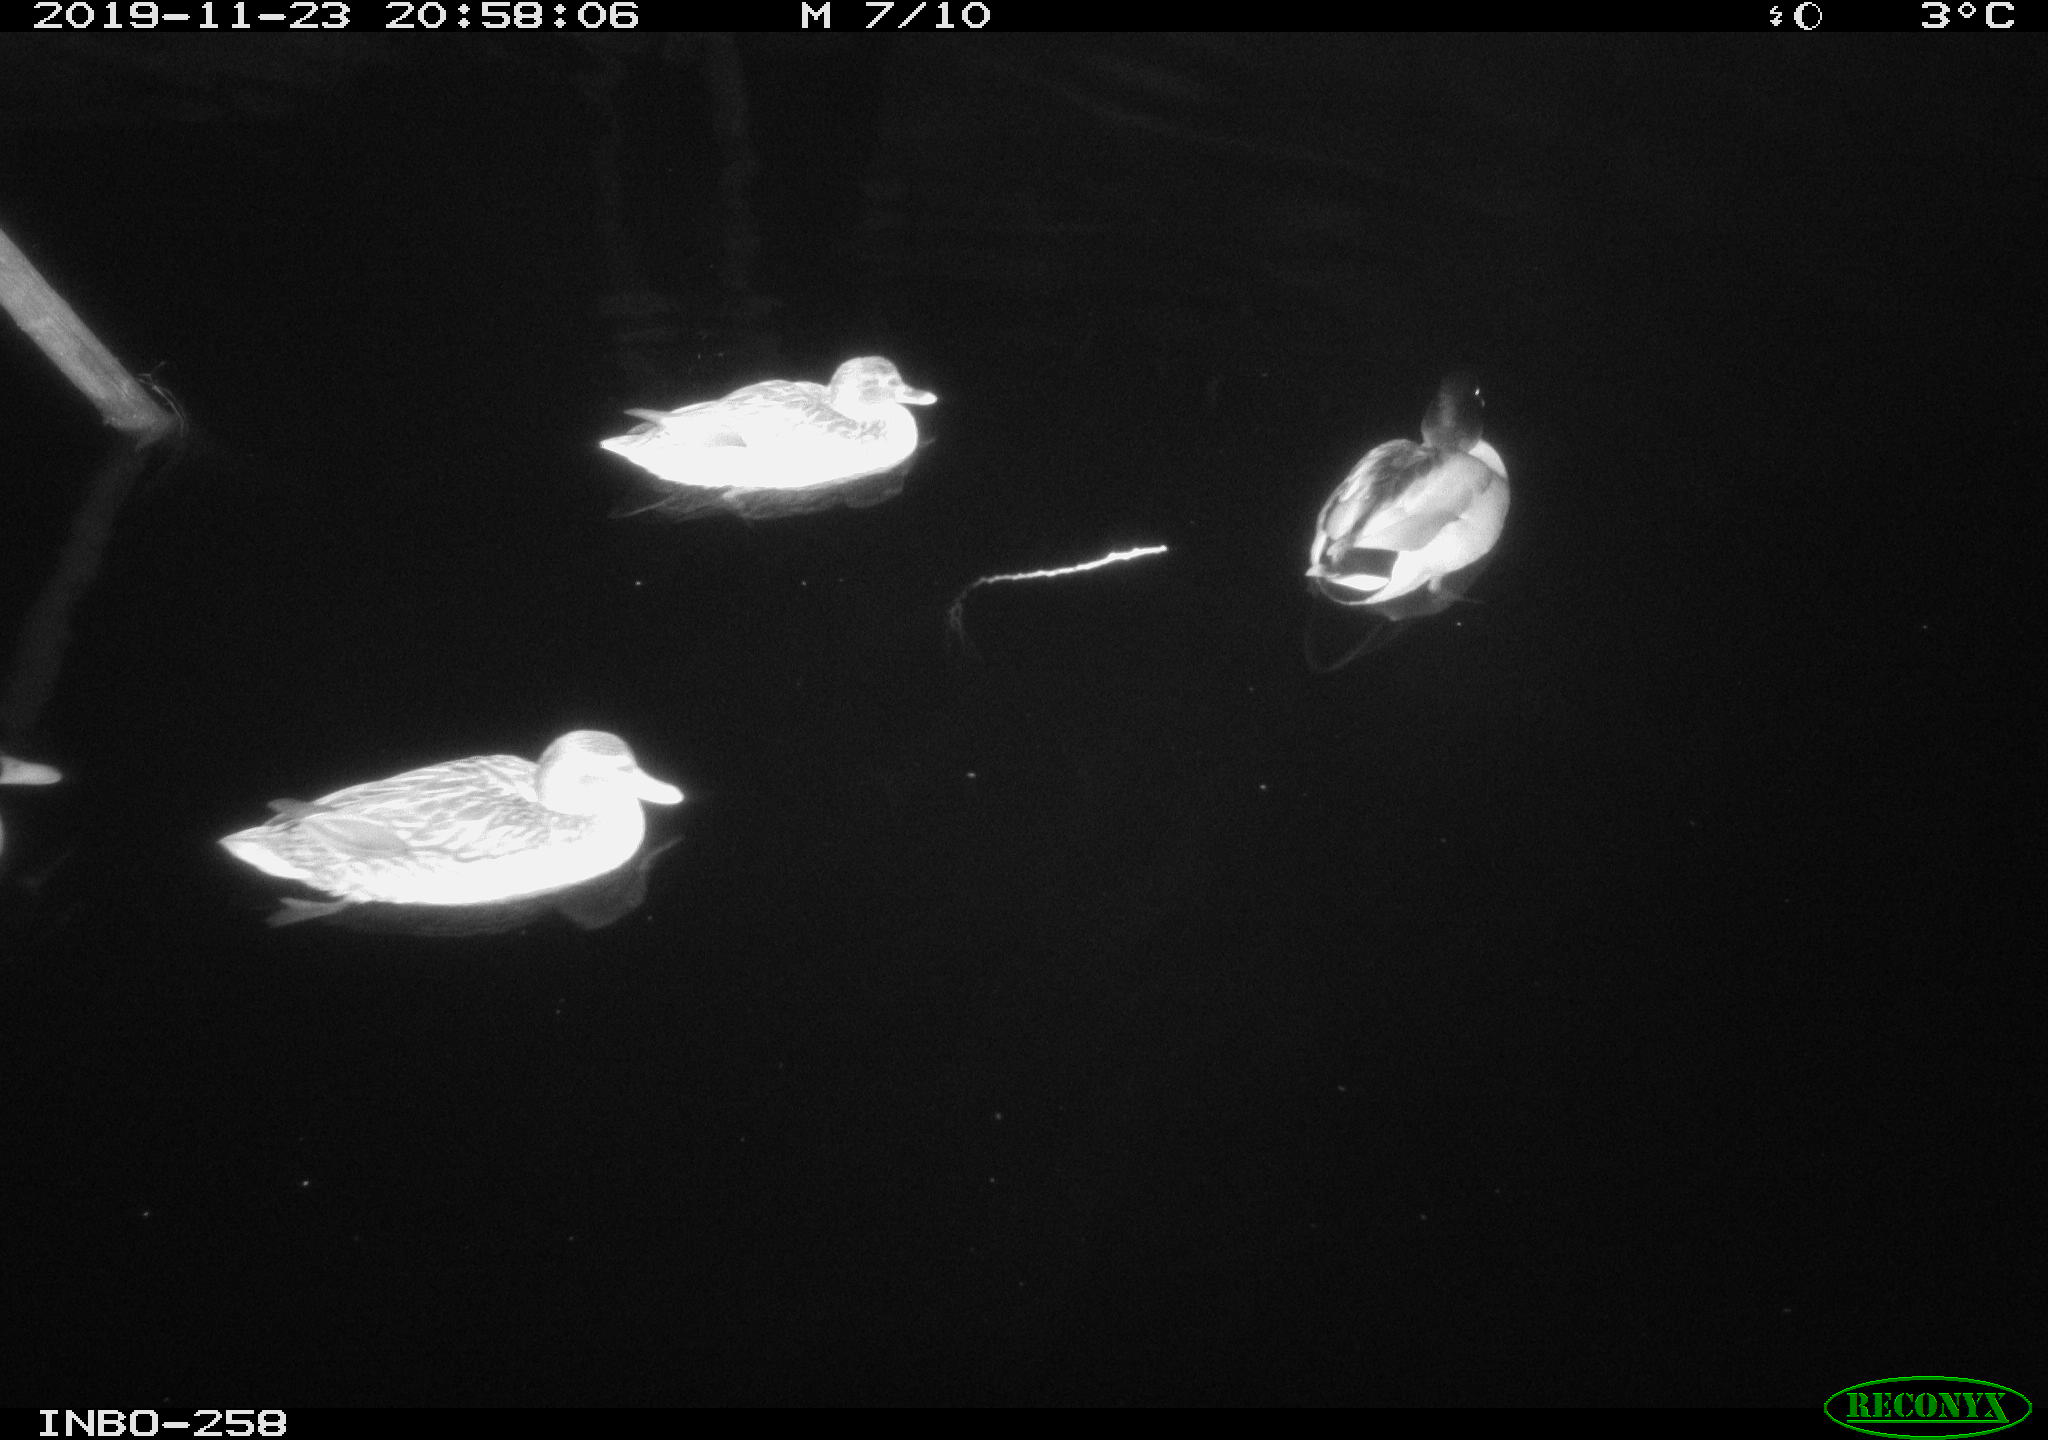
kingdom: Animalia
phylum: Chordata
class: Aves
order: Anseriformes
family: Anatidae
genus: Anas
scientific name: Anas platyrhynchos
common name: Mallard
